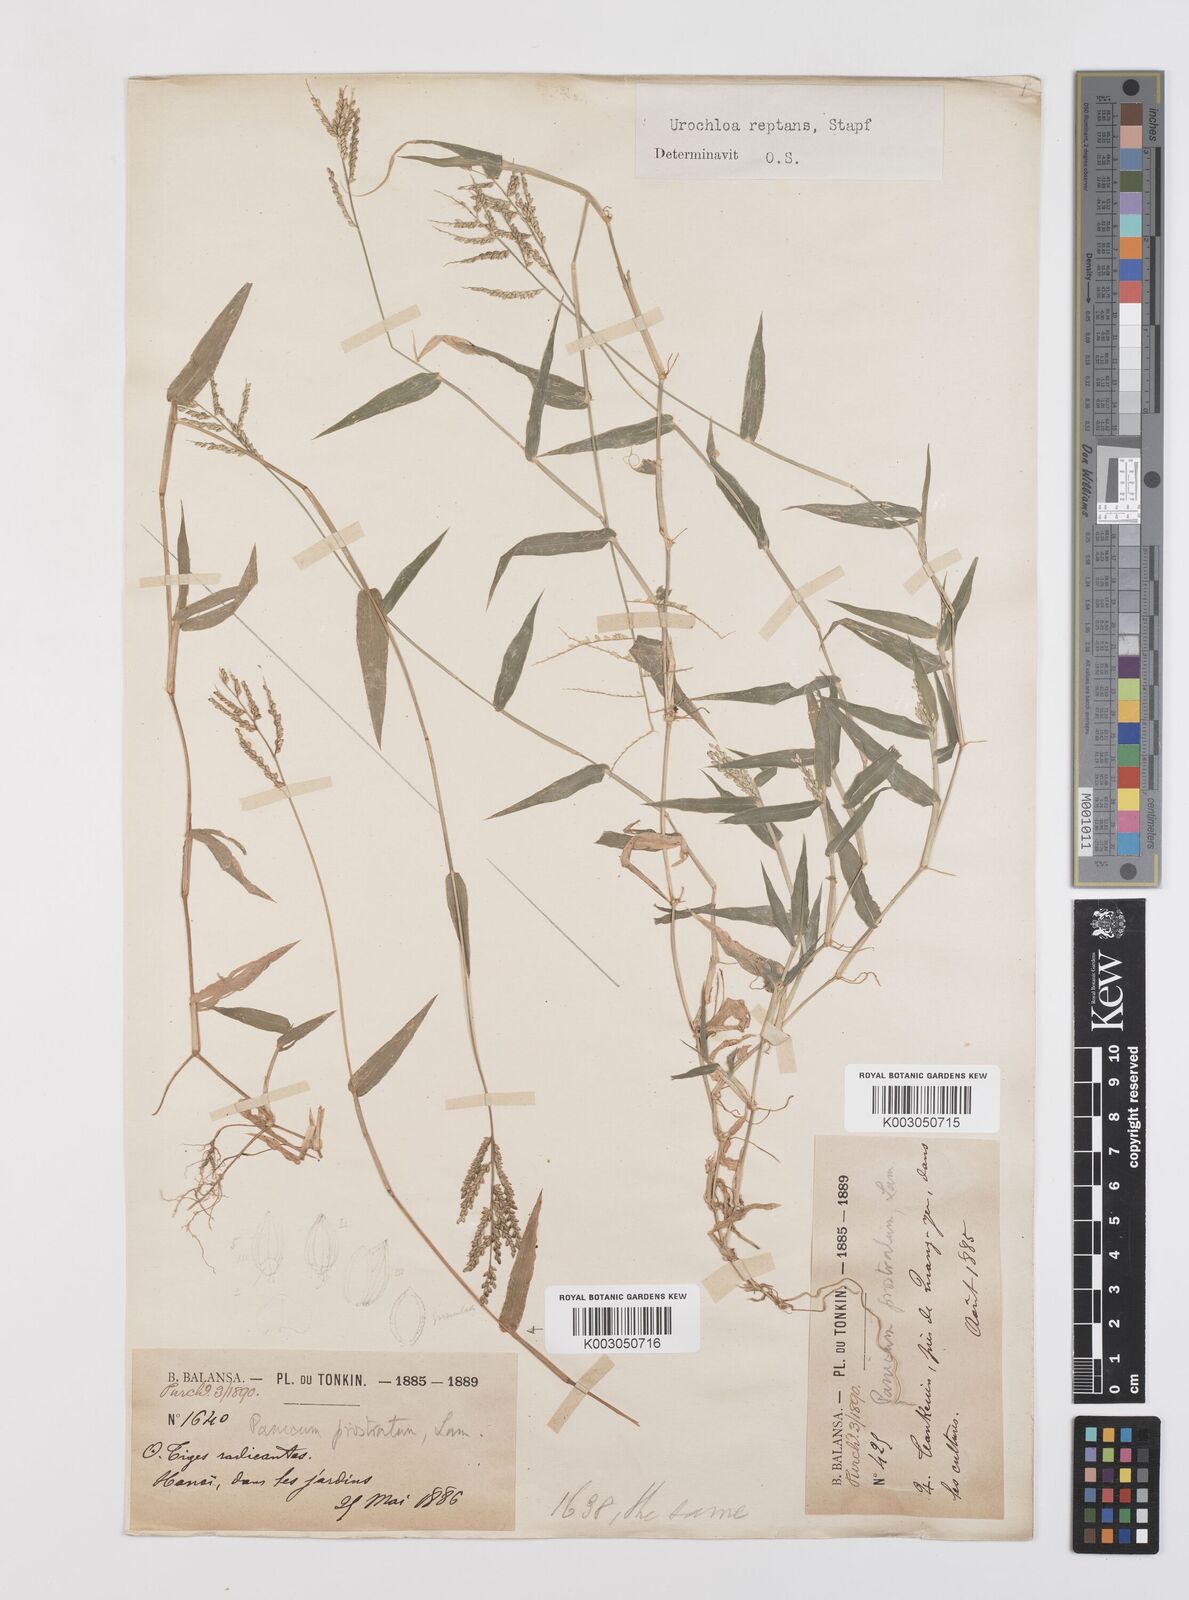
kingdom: Plantae
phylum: Tracheophyta
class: Liliopsida
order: Poales
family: Poaceae
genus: Urochloa
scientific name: Urochloa reptans
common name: Sprawling signalgrass
